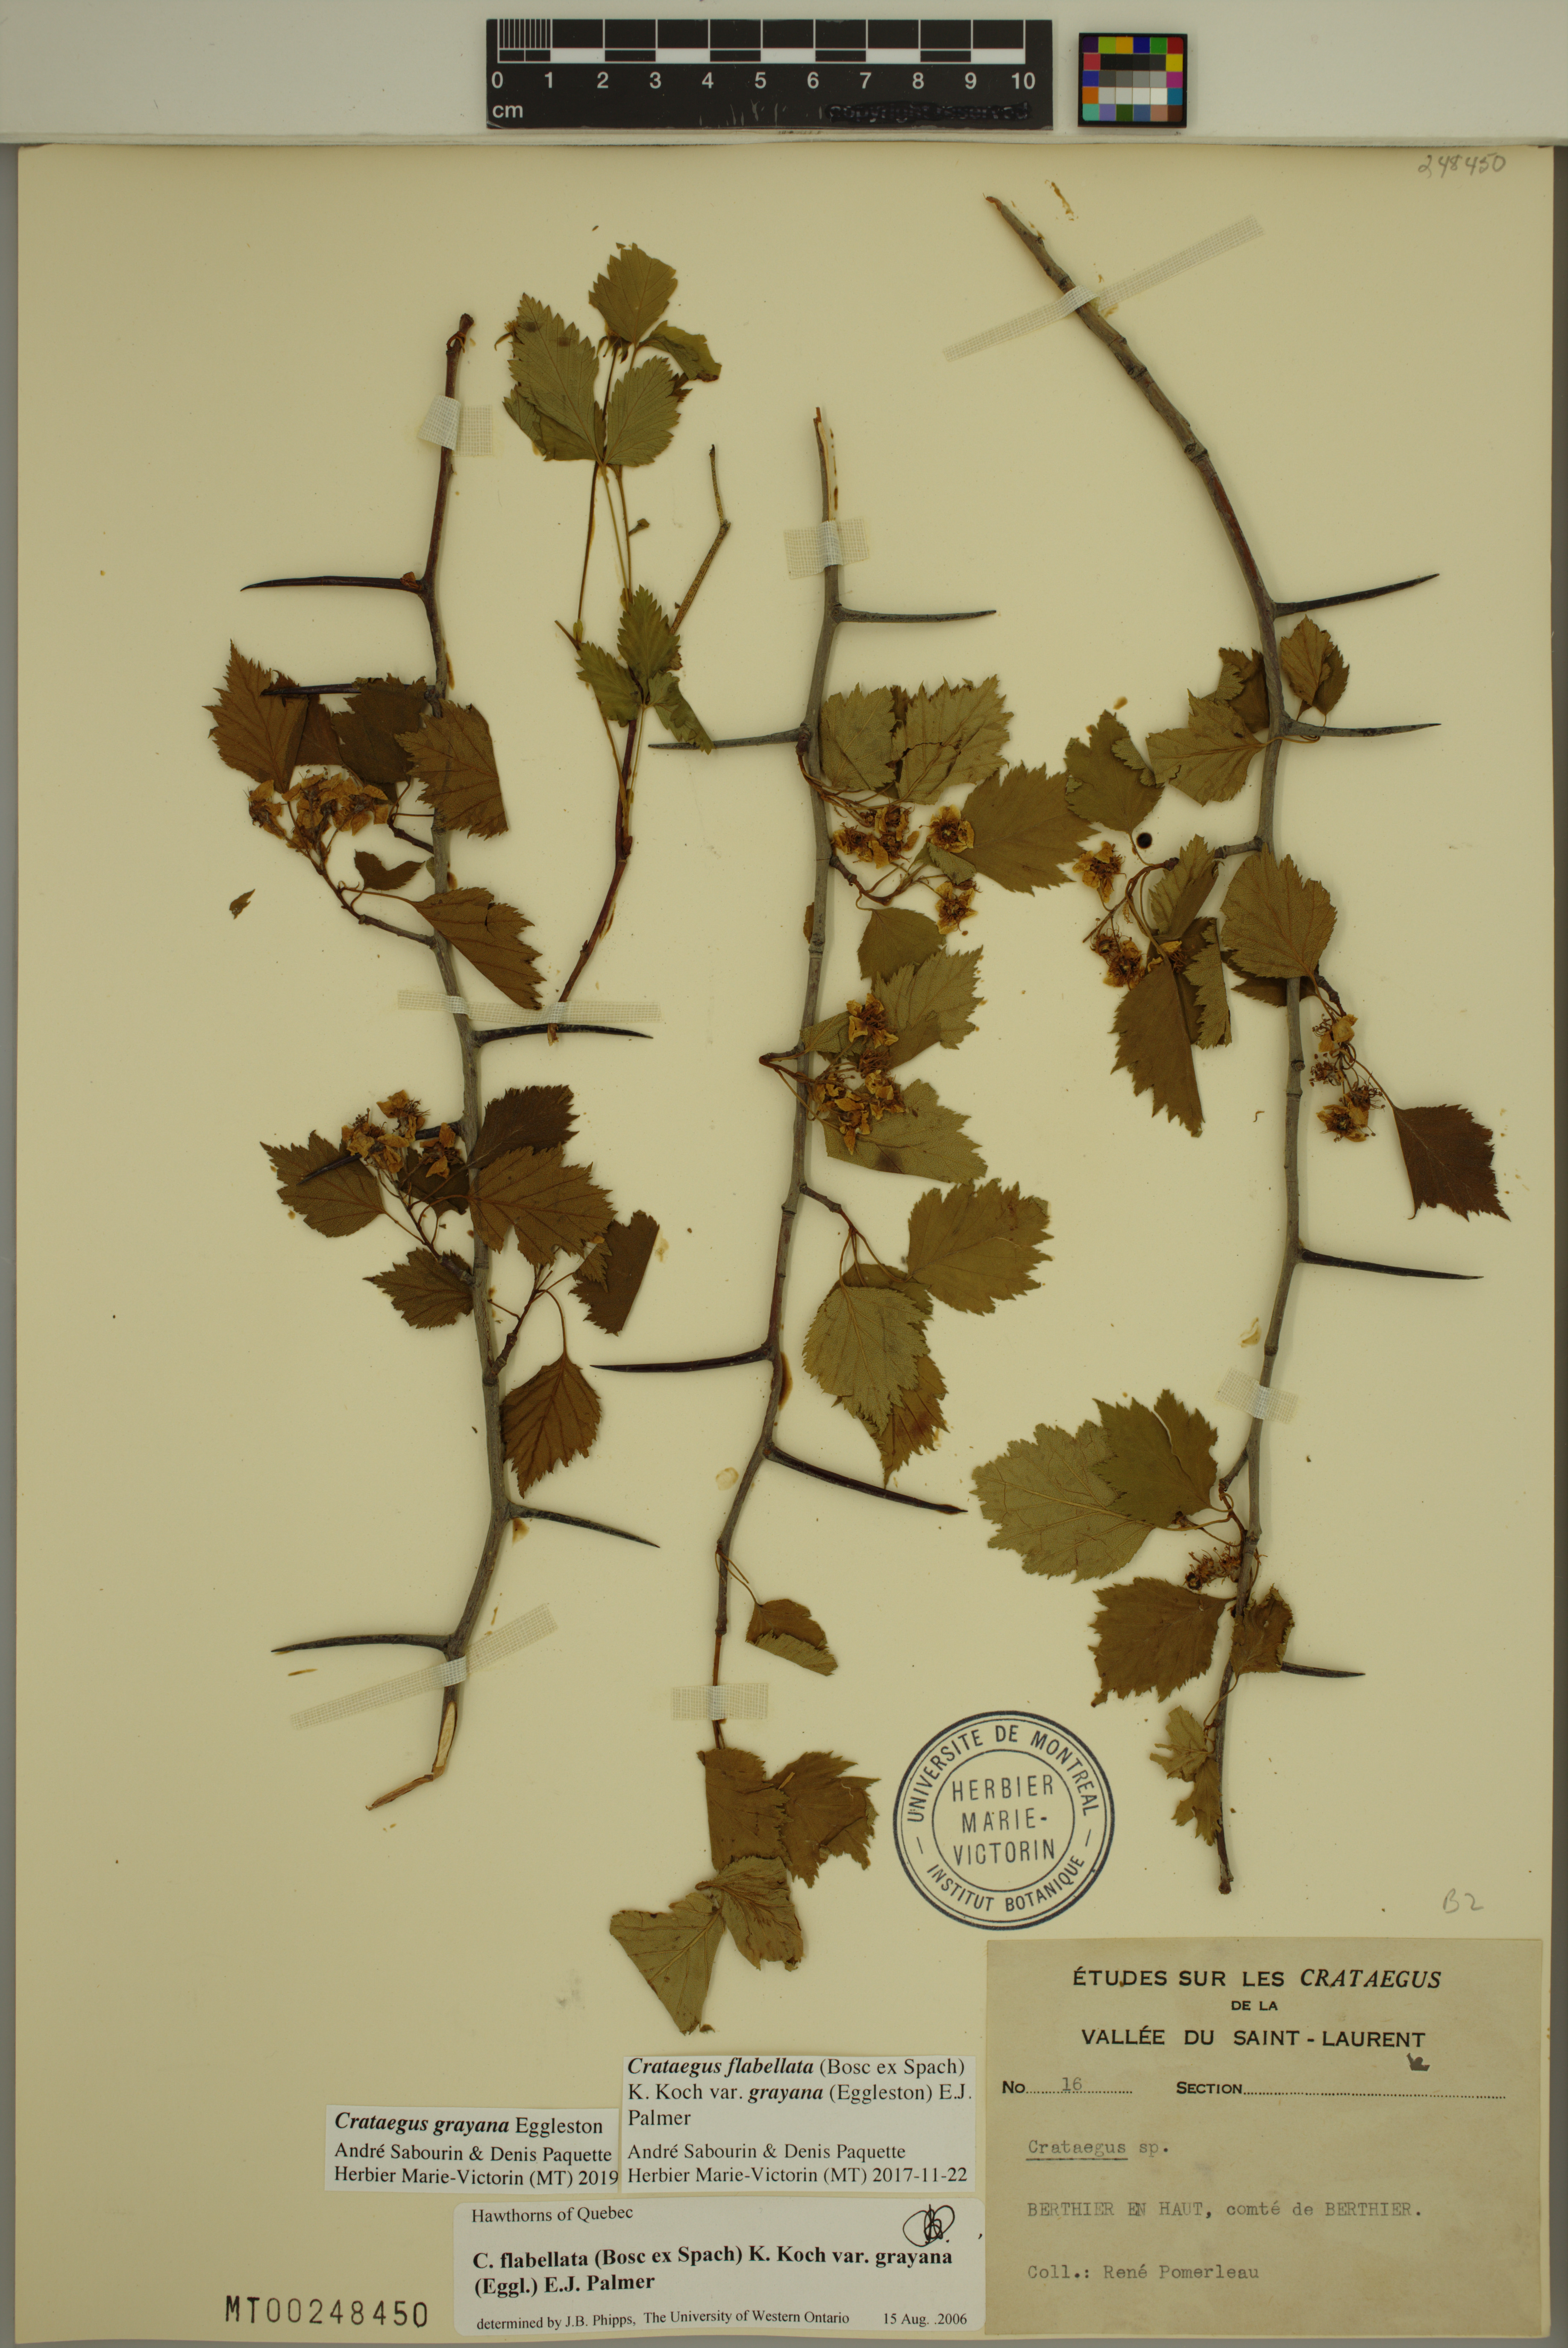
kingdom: Plantae
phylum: Tracheophyta
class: Magnoliopsida
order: Rosales
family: Rosaceae
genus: Crataegus
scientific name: Crataegus schuettei
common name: Schuette's hawthorn
